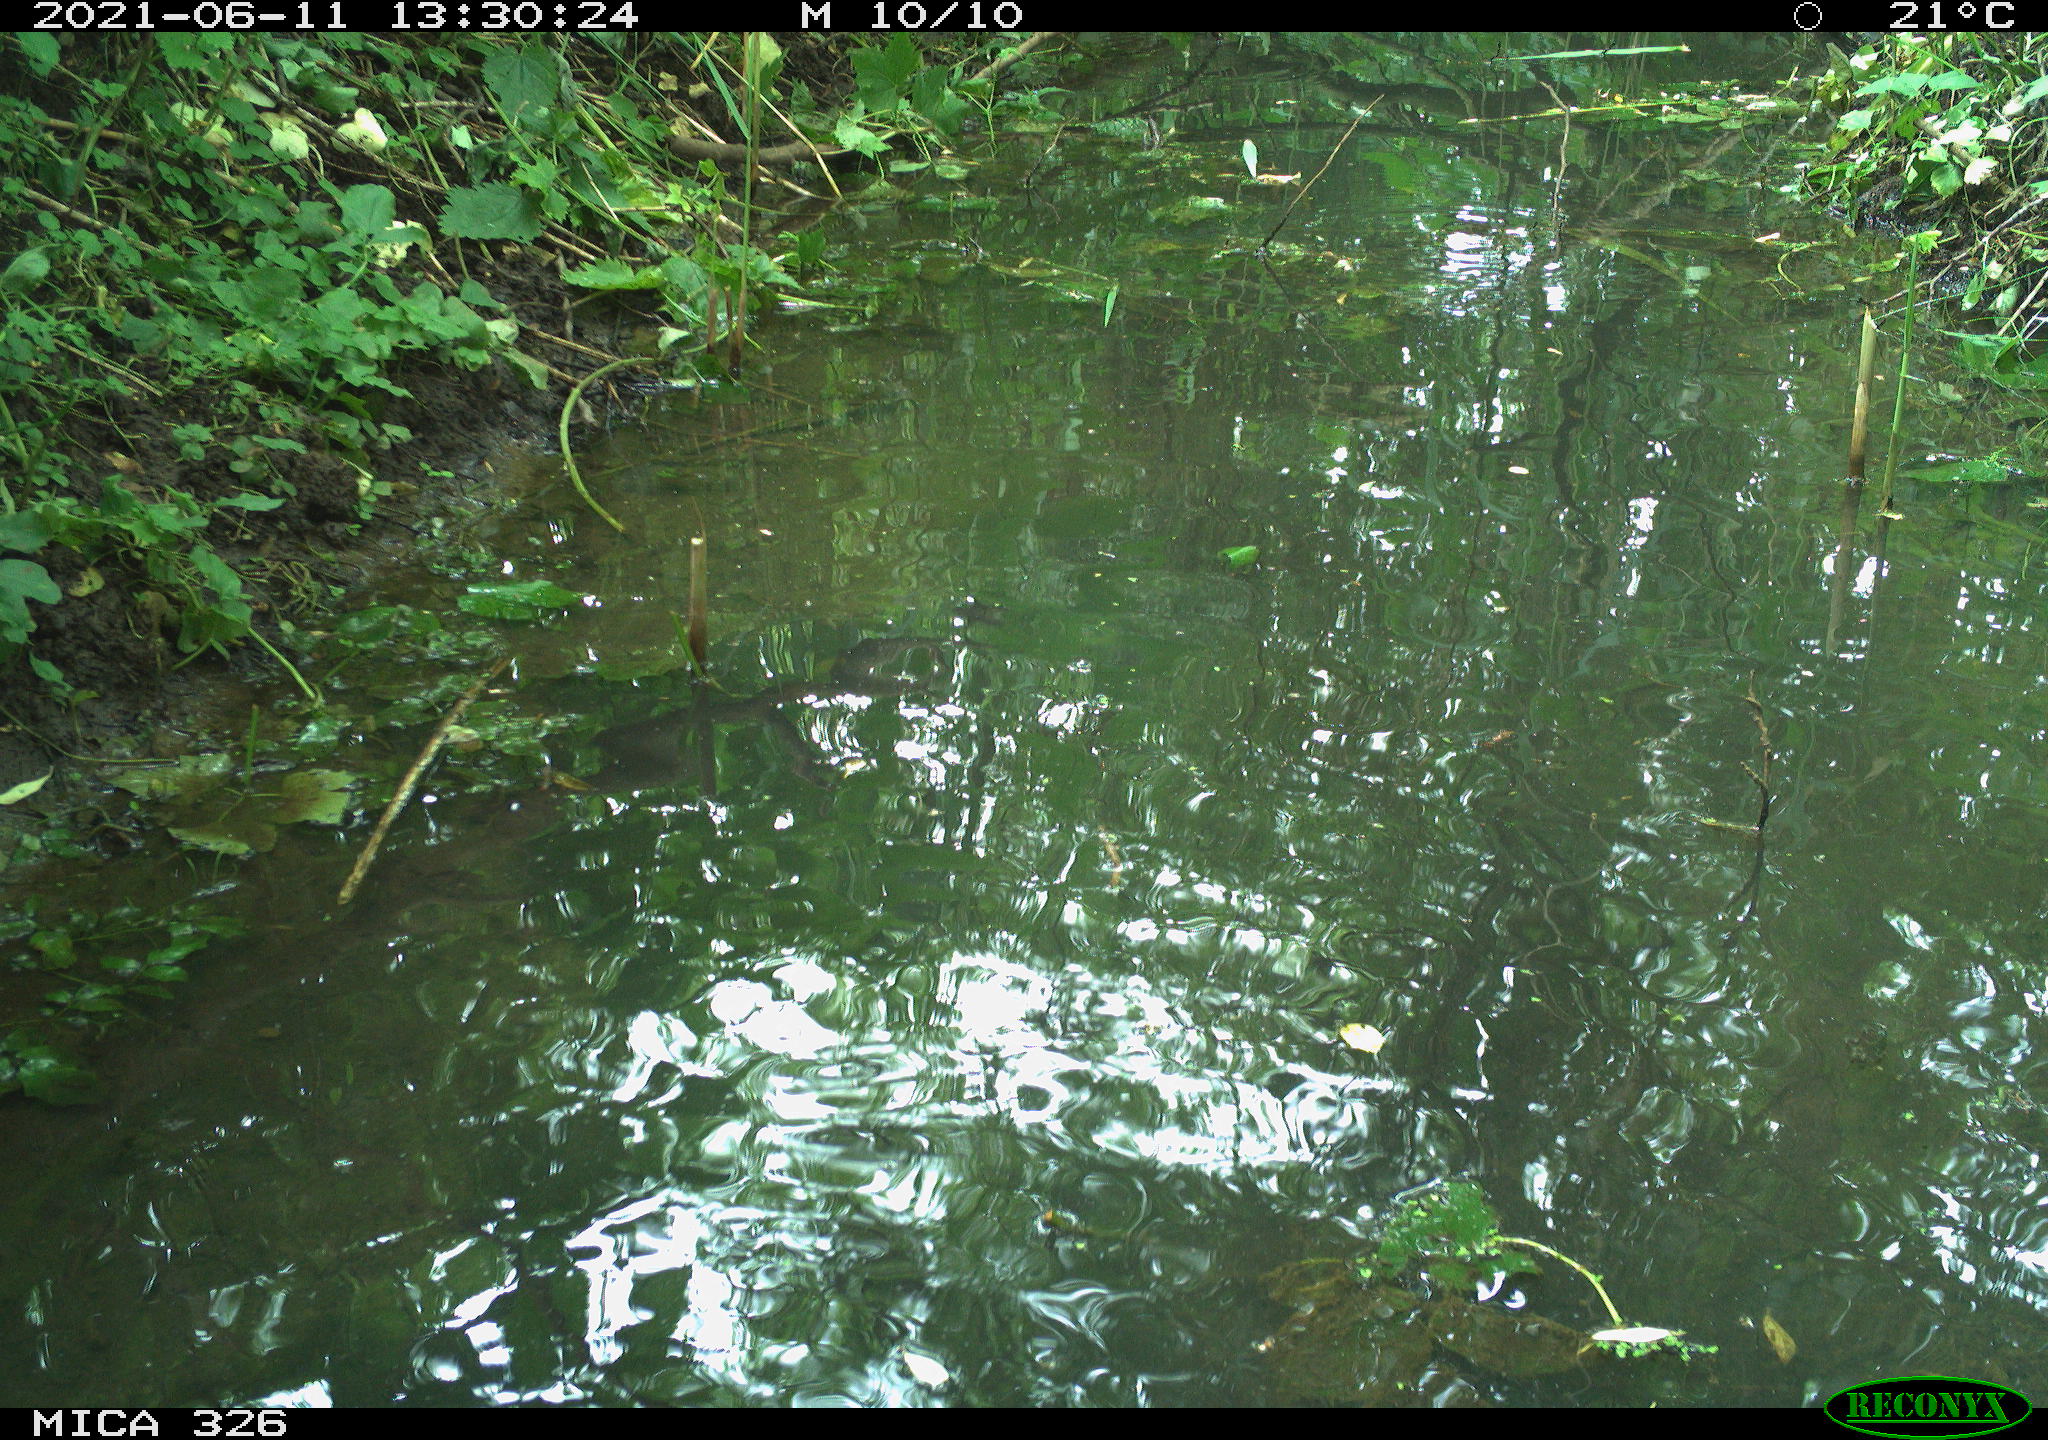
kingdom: Animalia
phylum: Chordata
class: Aves
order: Anseriformes
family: Anatidae
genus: Anas
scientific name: Anas platyrhynchos
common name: Mallard
